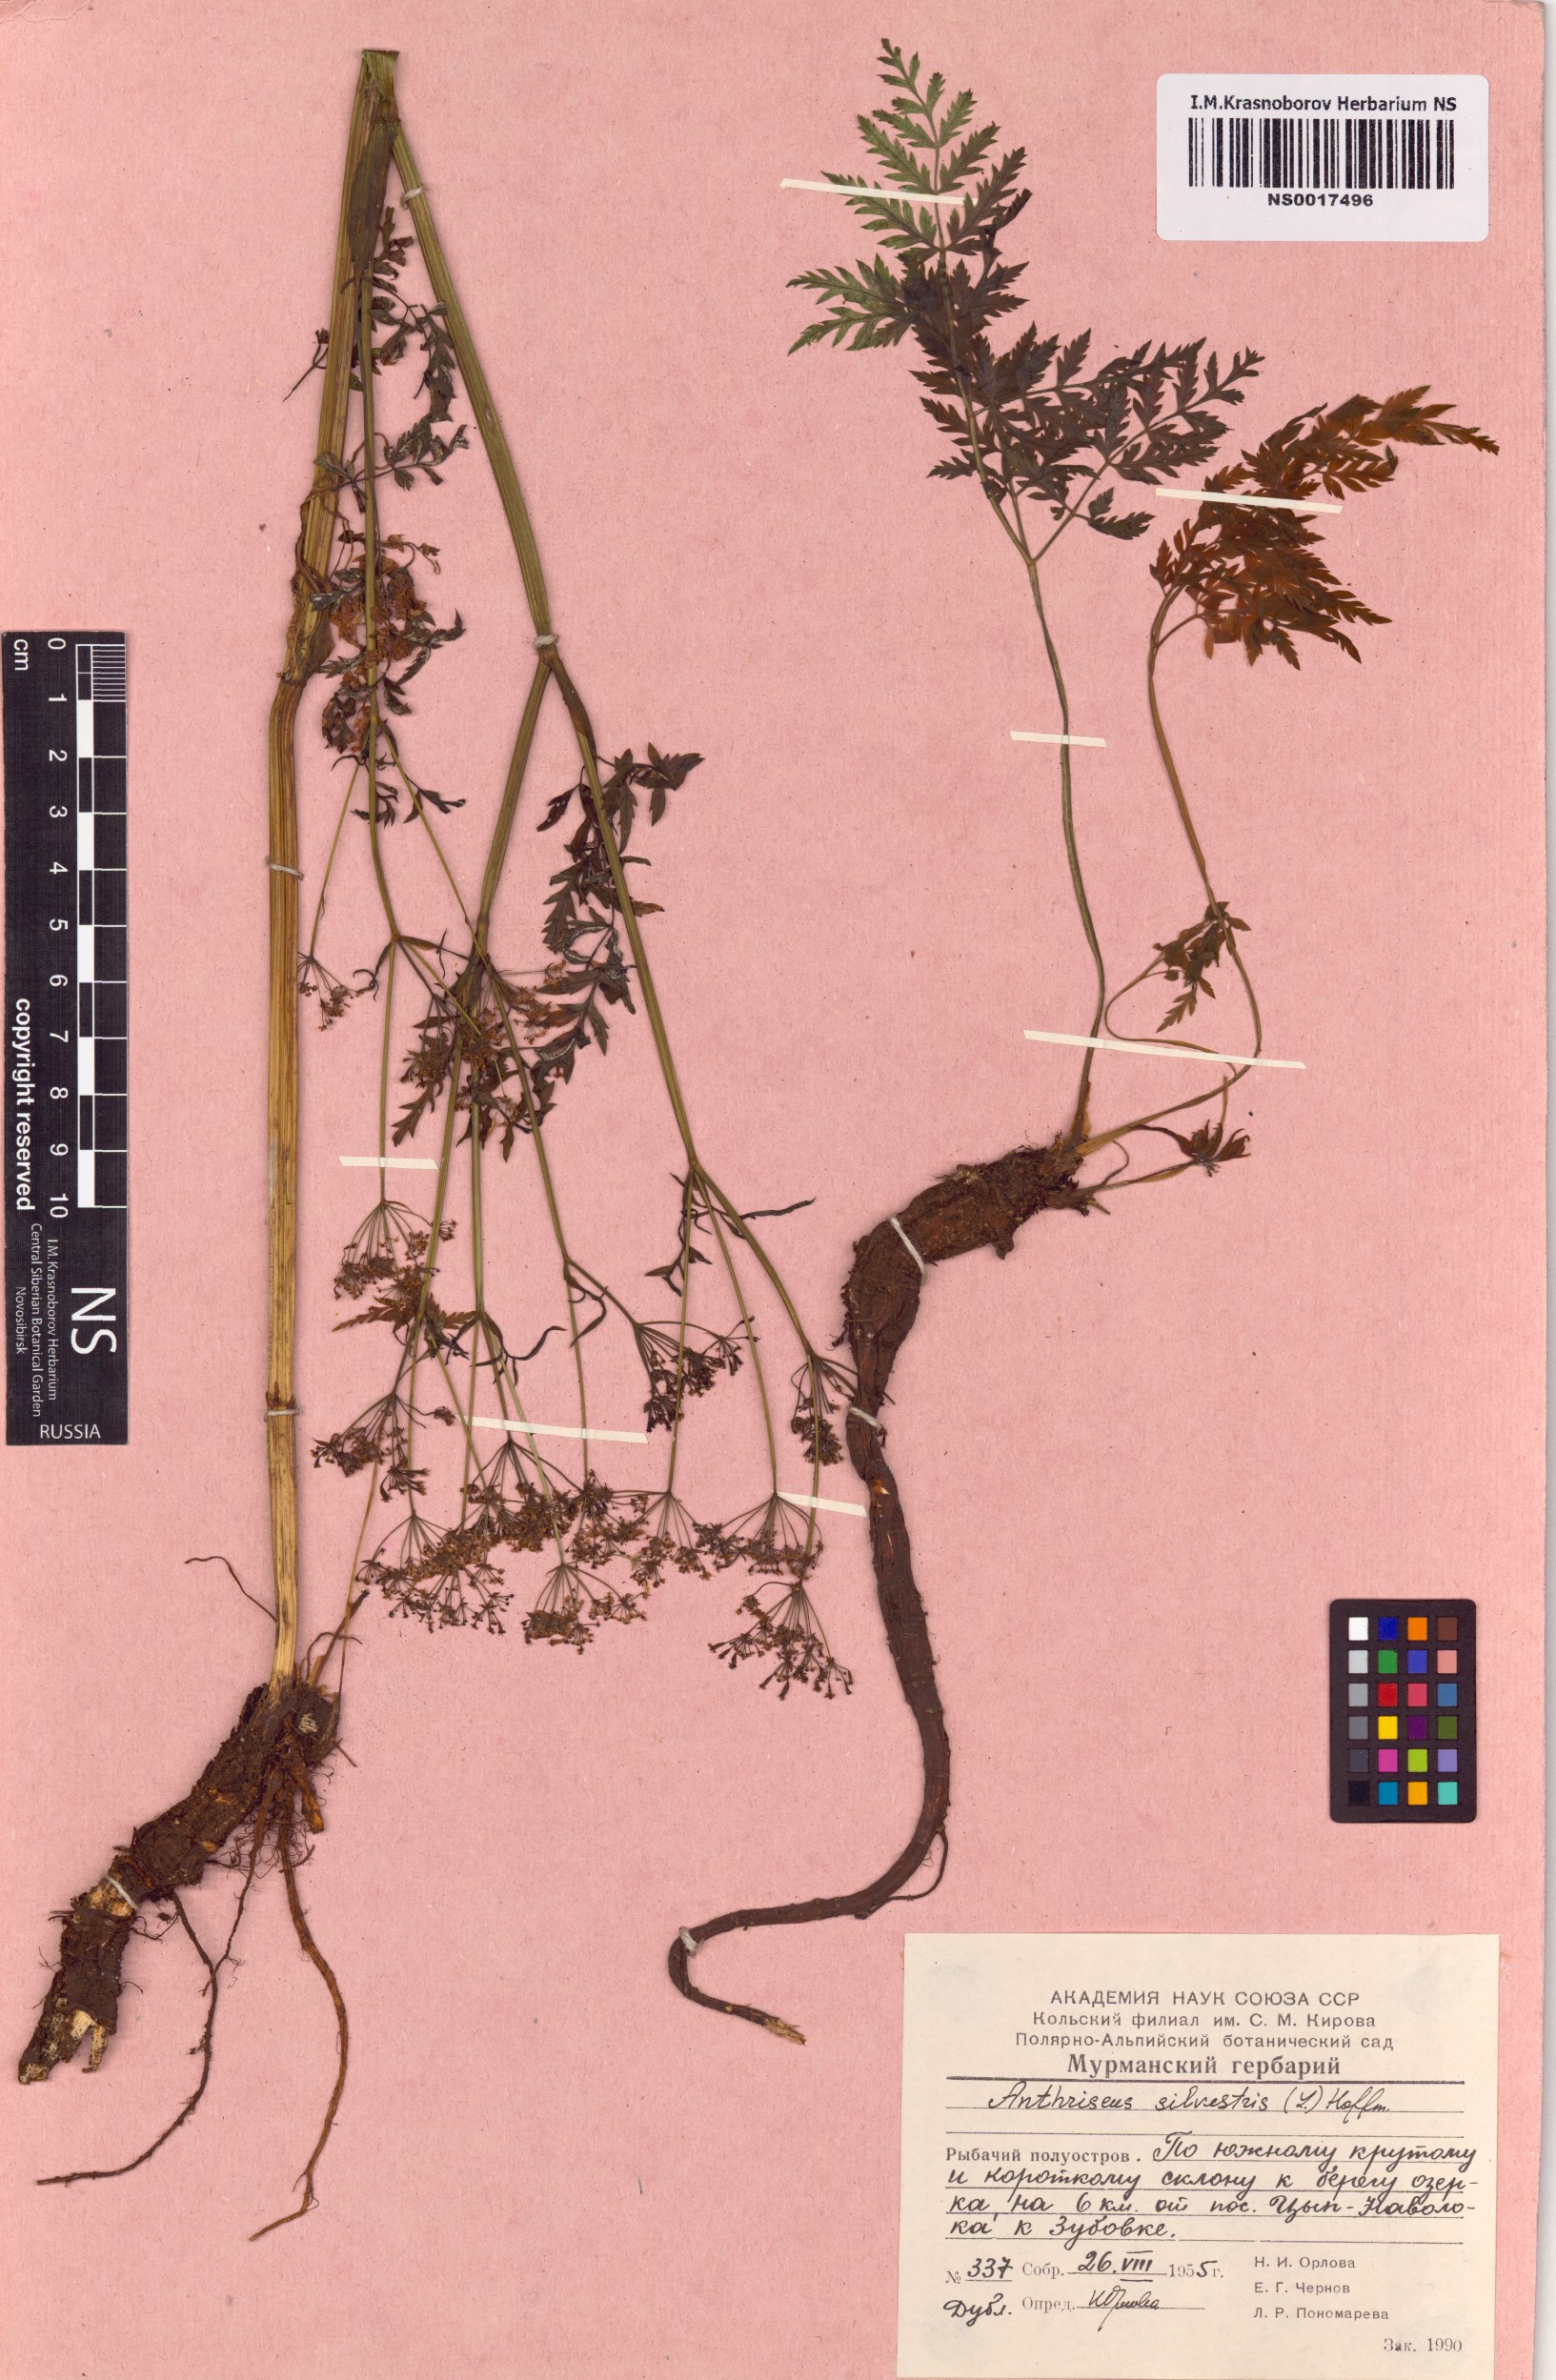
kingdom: Plantae
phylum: Tracheophyta
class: Magnoliopsida
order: Apiales
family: Apiaceae
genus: Anthriscus
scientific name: Anthriscus sylvestris
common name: Cow parsley
